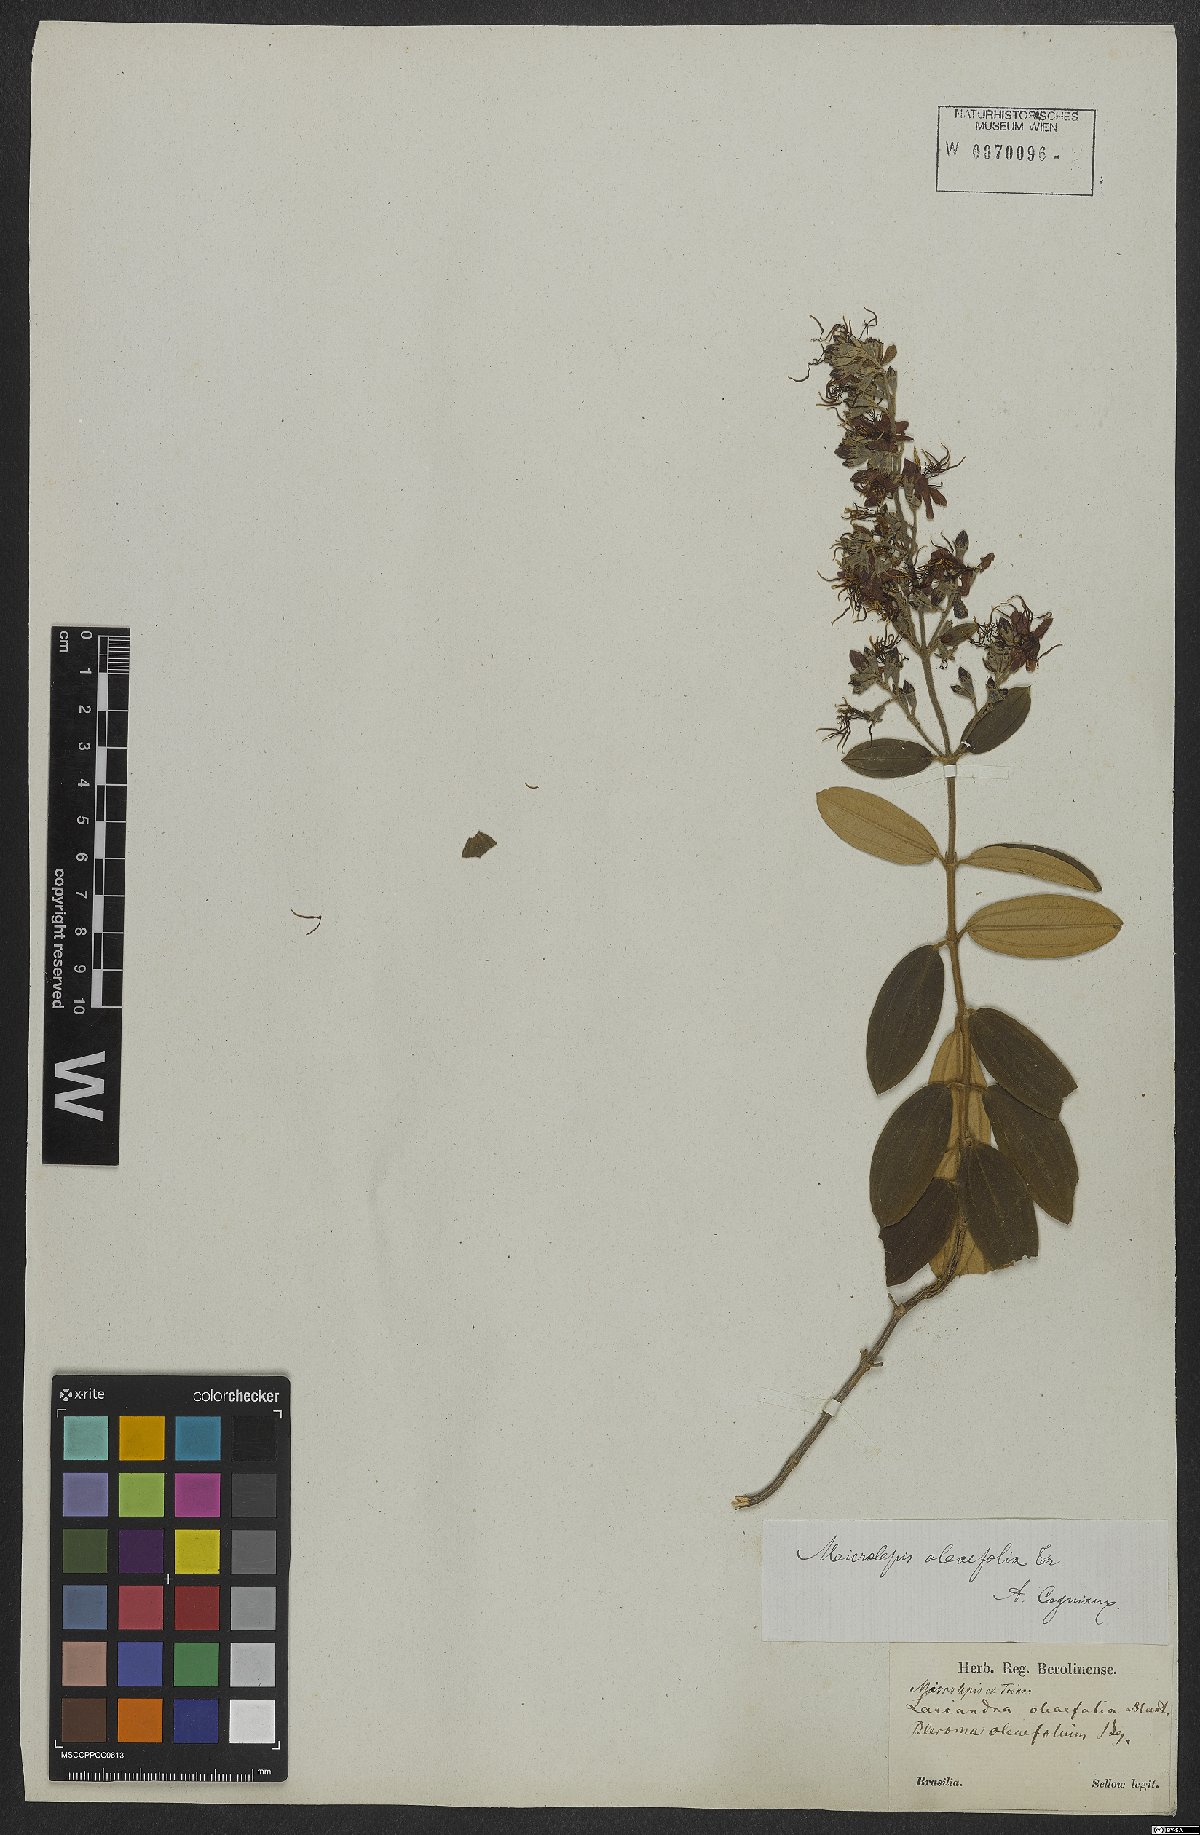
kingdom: Plantae
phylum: Tracheophyta
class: Magnoliopsida
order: Myrtales
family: Melastomataceae
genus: Pleroma
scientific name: Pleroma oleifolia
